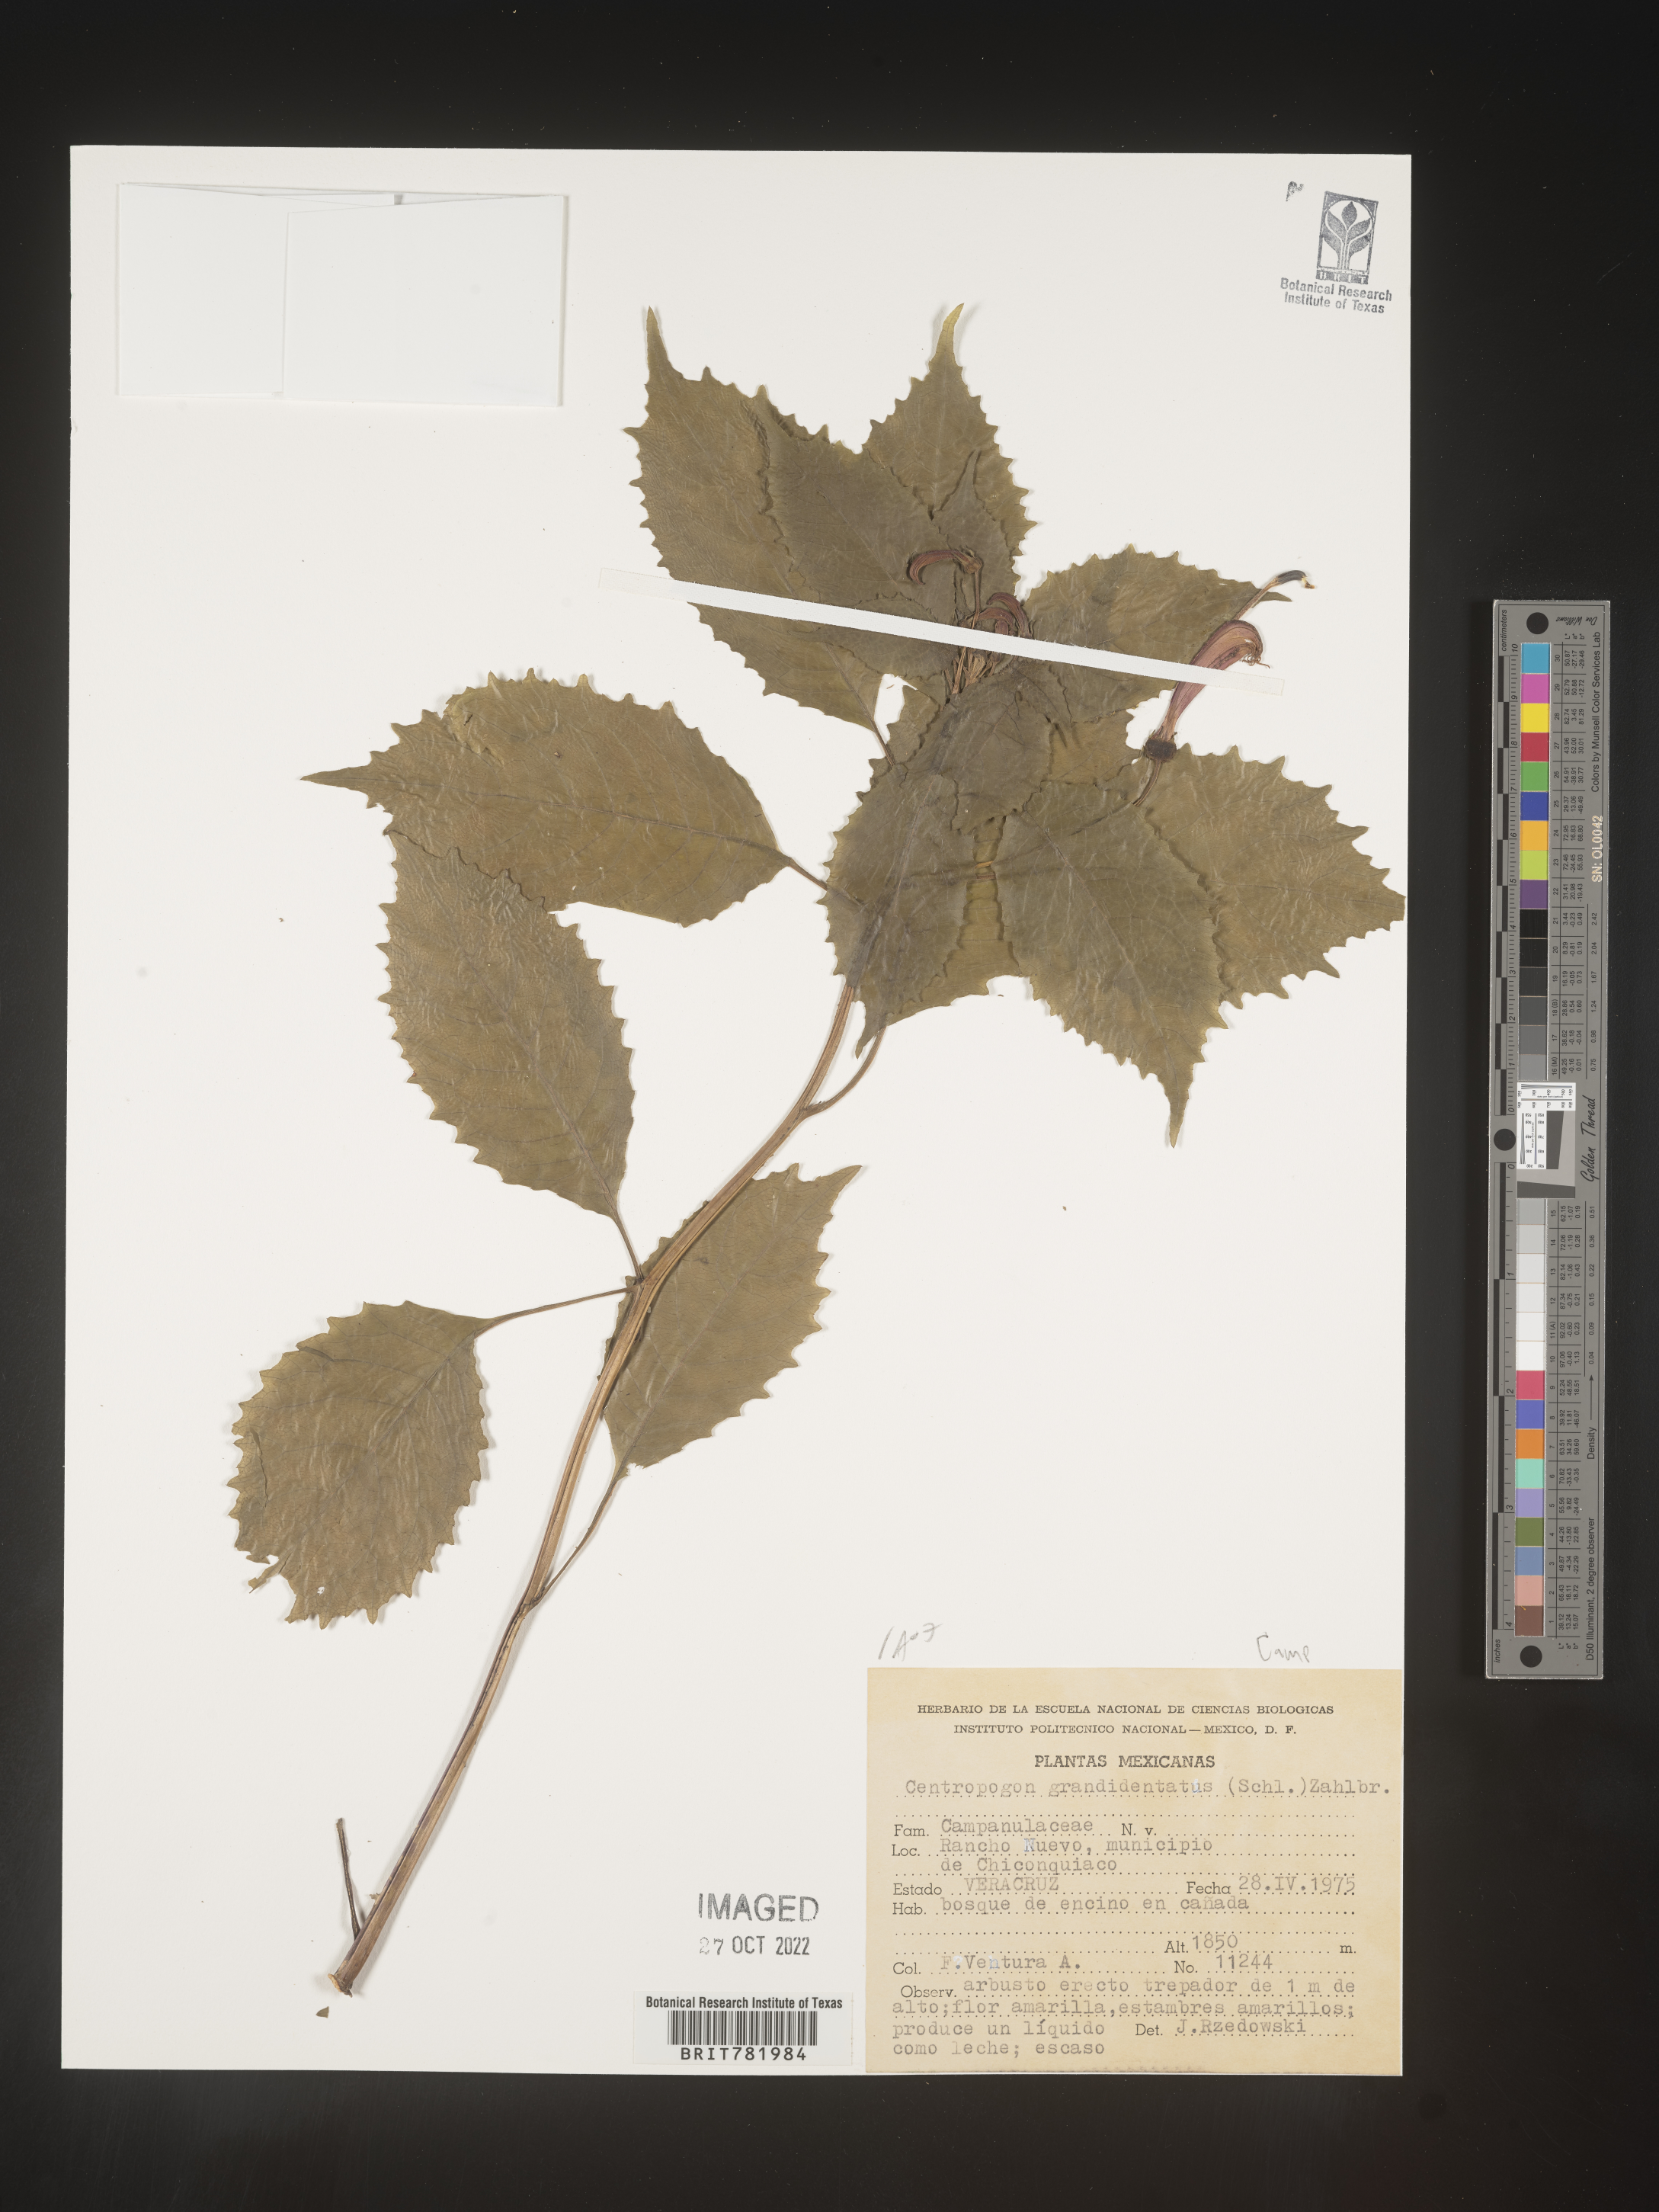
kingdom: Plantae
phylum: Tracheophyta
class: Magnoliopsida
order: Asterales
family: Campanulaceae
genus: Centropogon
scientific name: Centropogon
